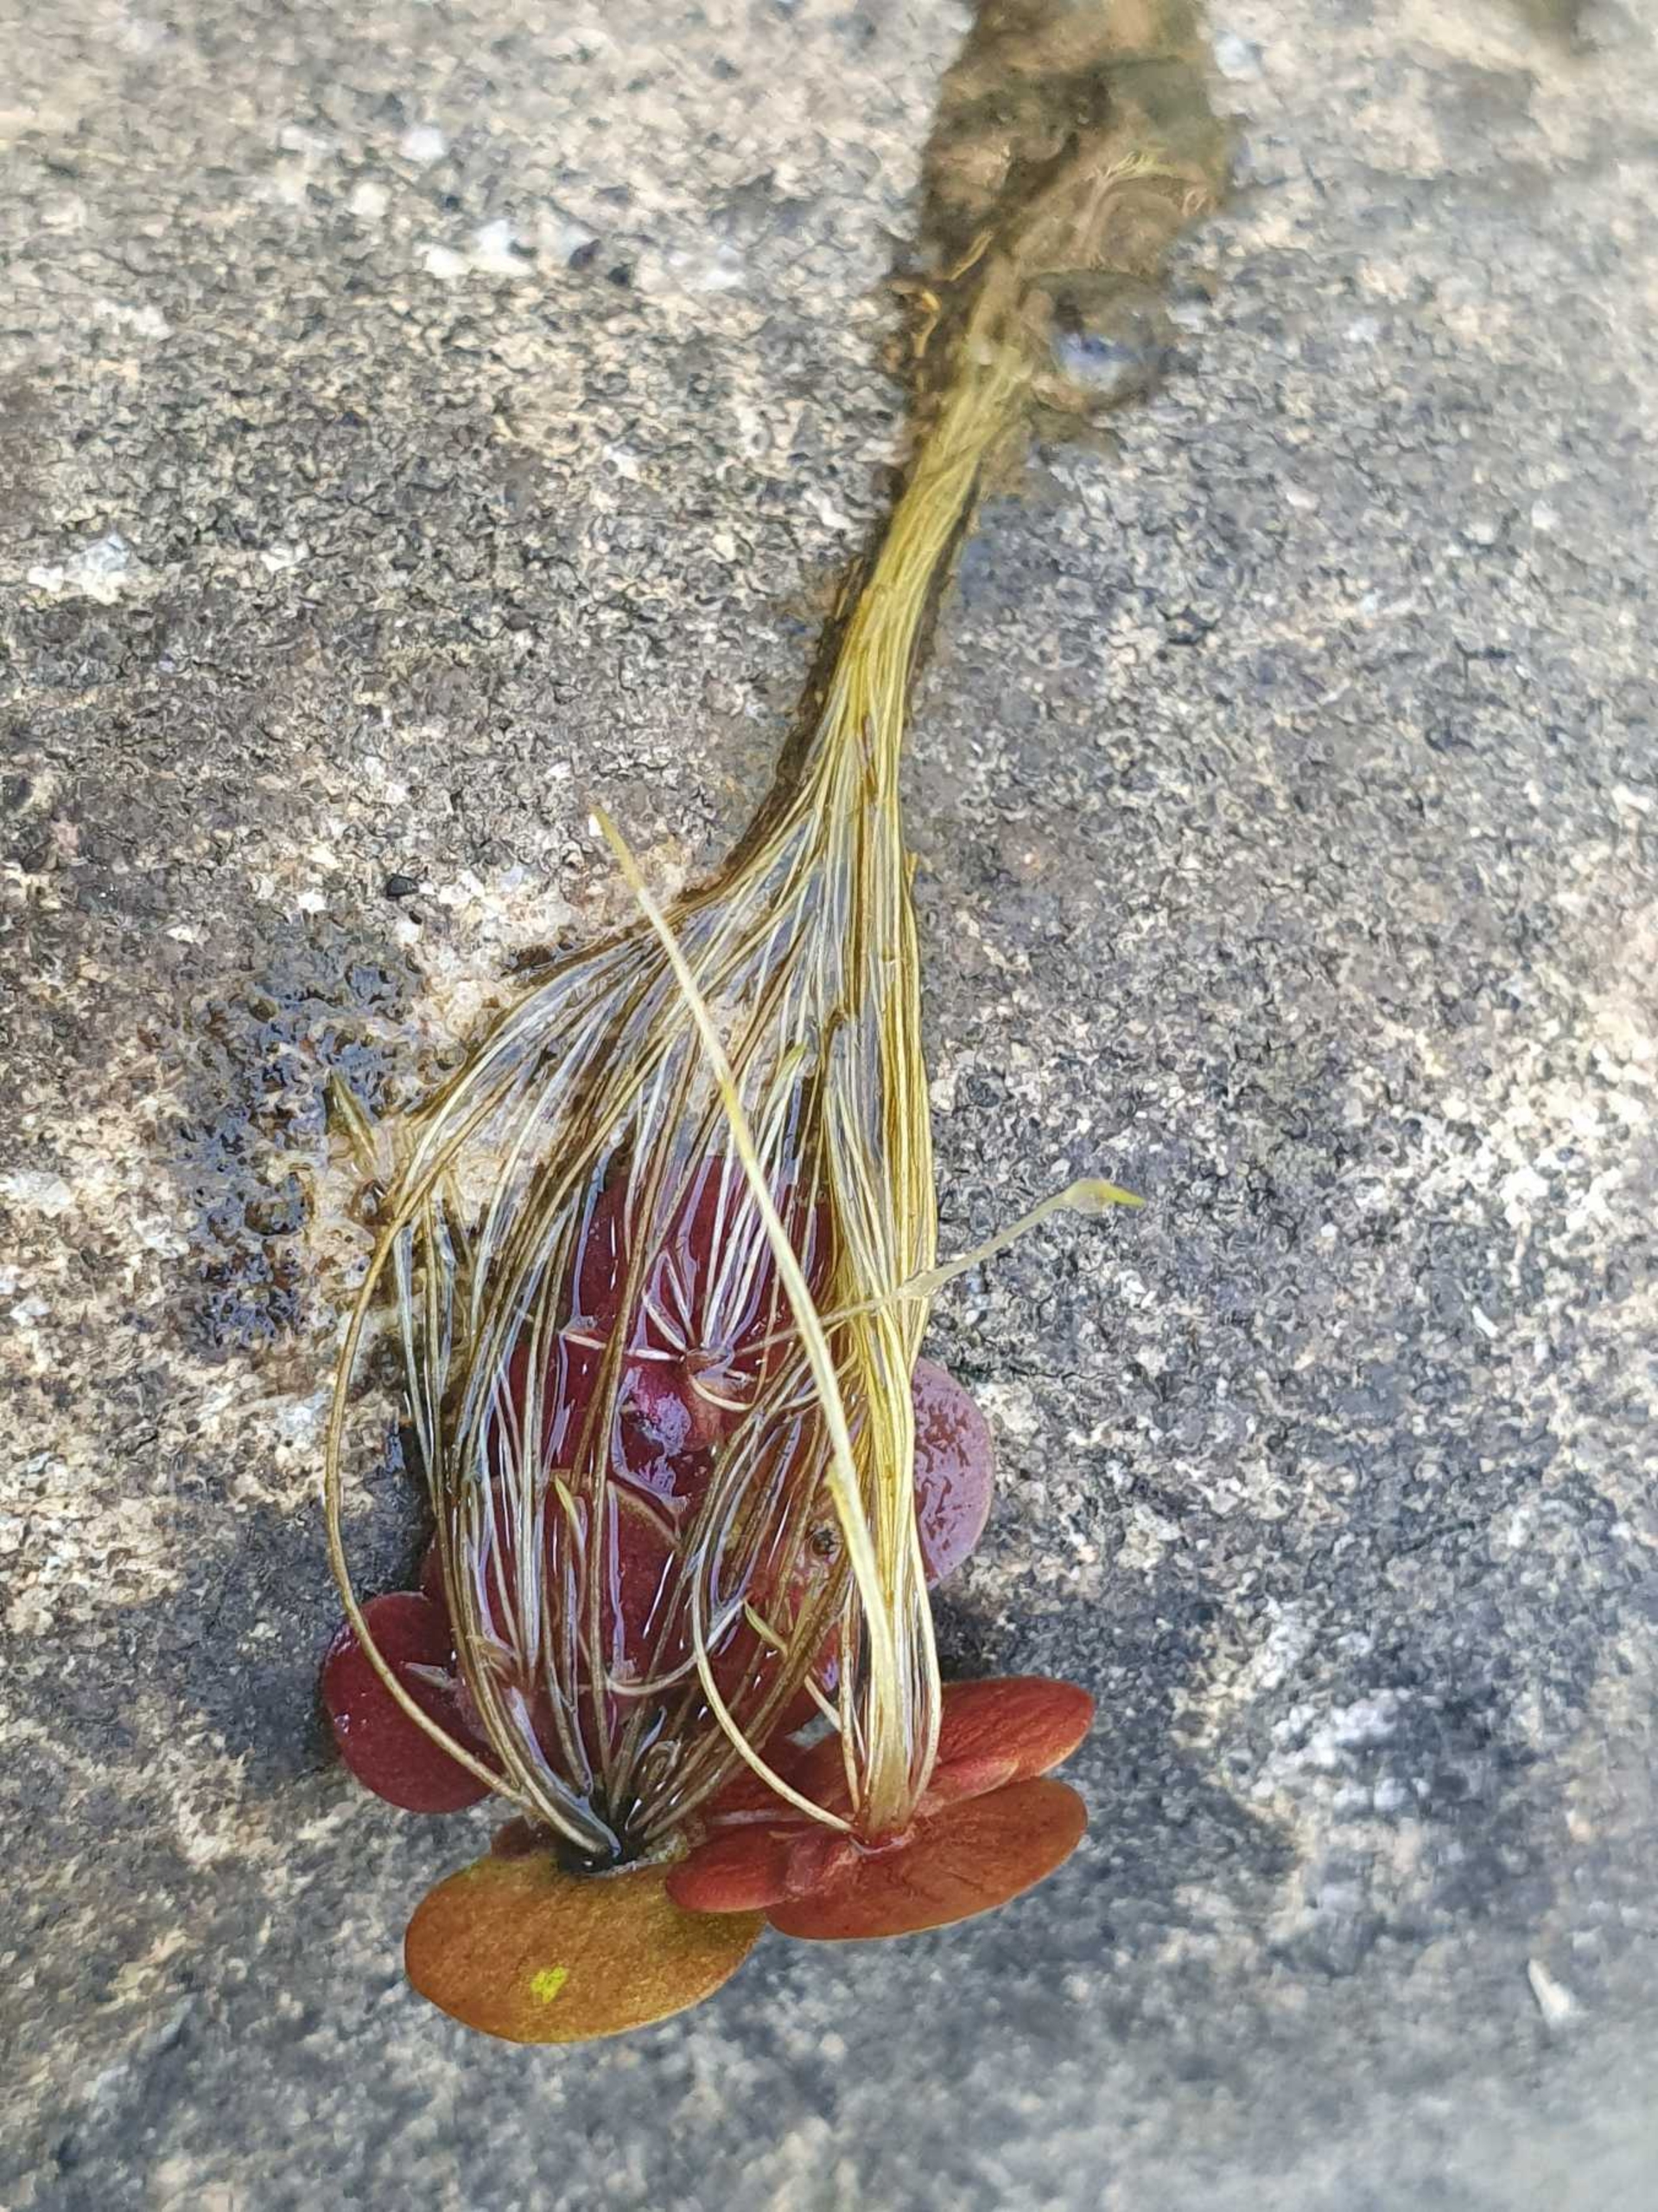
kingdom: Plantae
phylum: Tracheophyta
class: Liliopsida
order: Alismatales
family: Araceae
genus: Spirodela
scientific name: Spirodela polyrhiza
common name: Stor andemad
